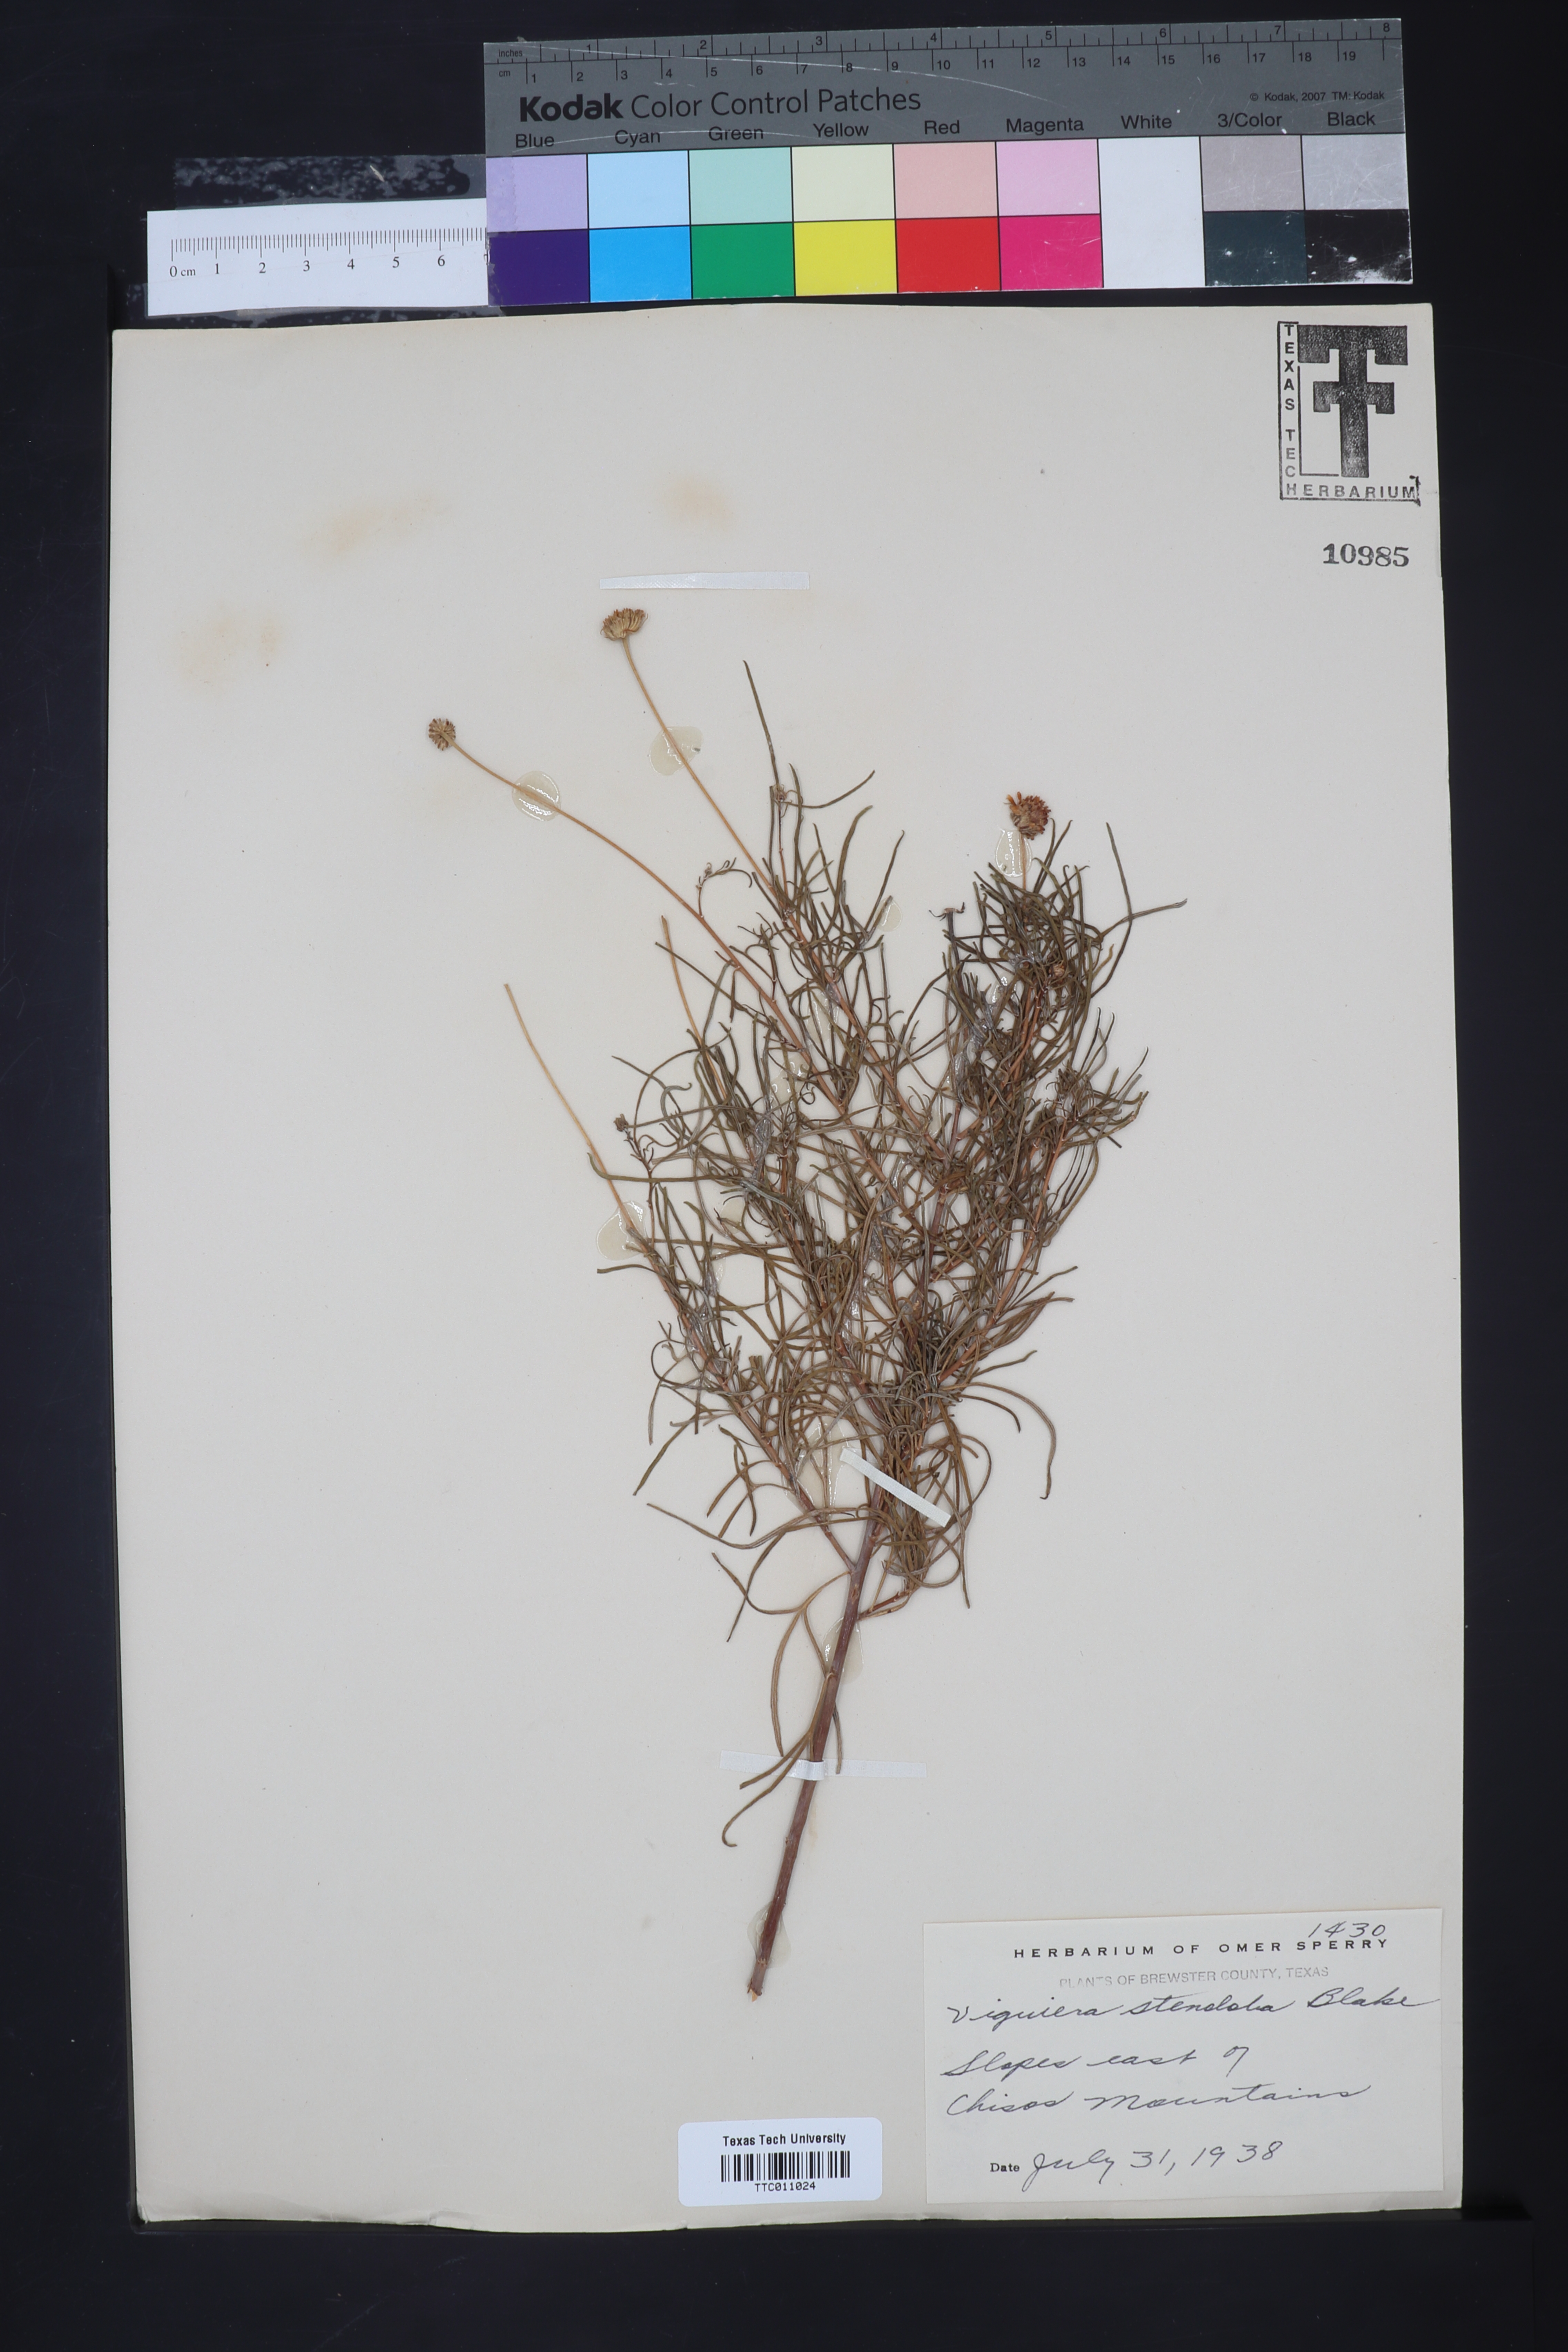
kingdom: Plantae
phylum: Tracheophyta
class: Magnoliopsida
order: Asterales
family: Asteraceae
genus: Sidneya
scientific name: Sidneya tenuifolia
